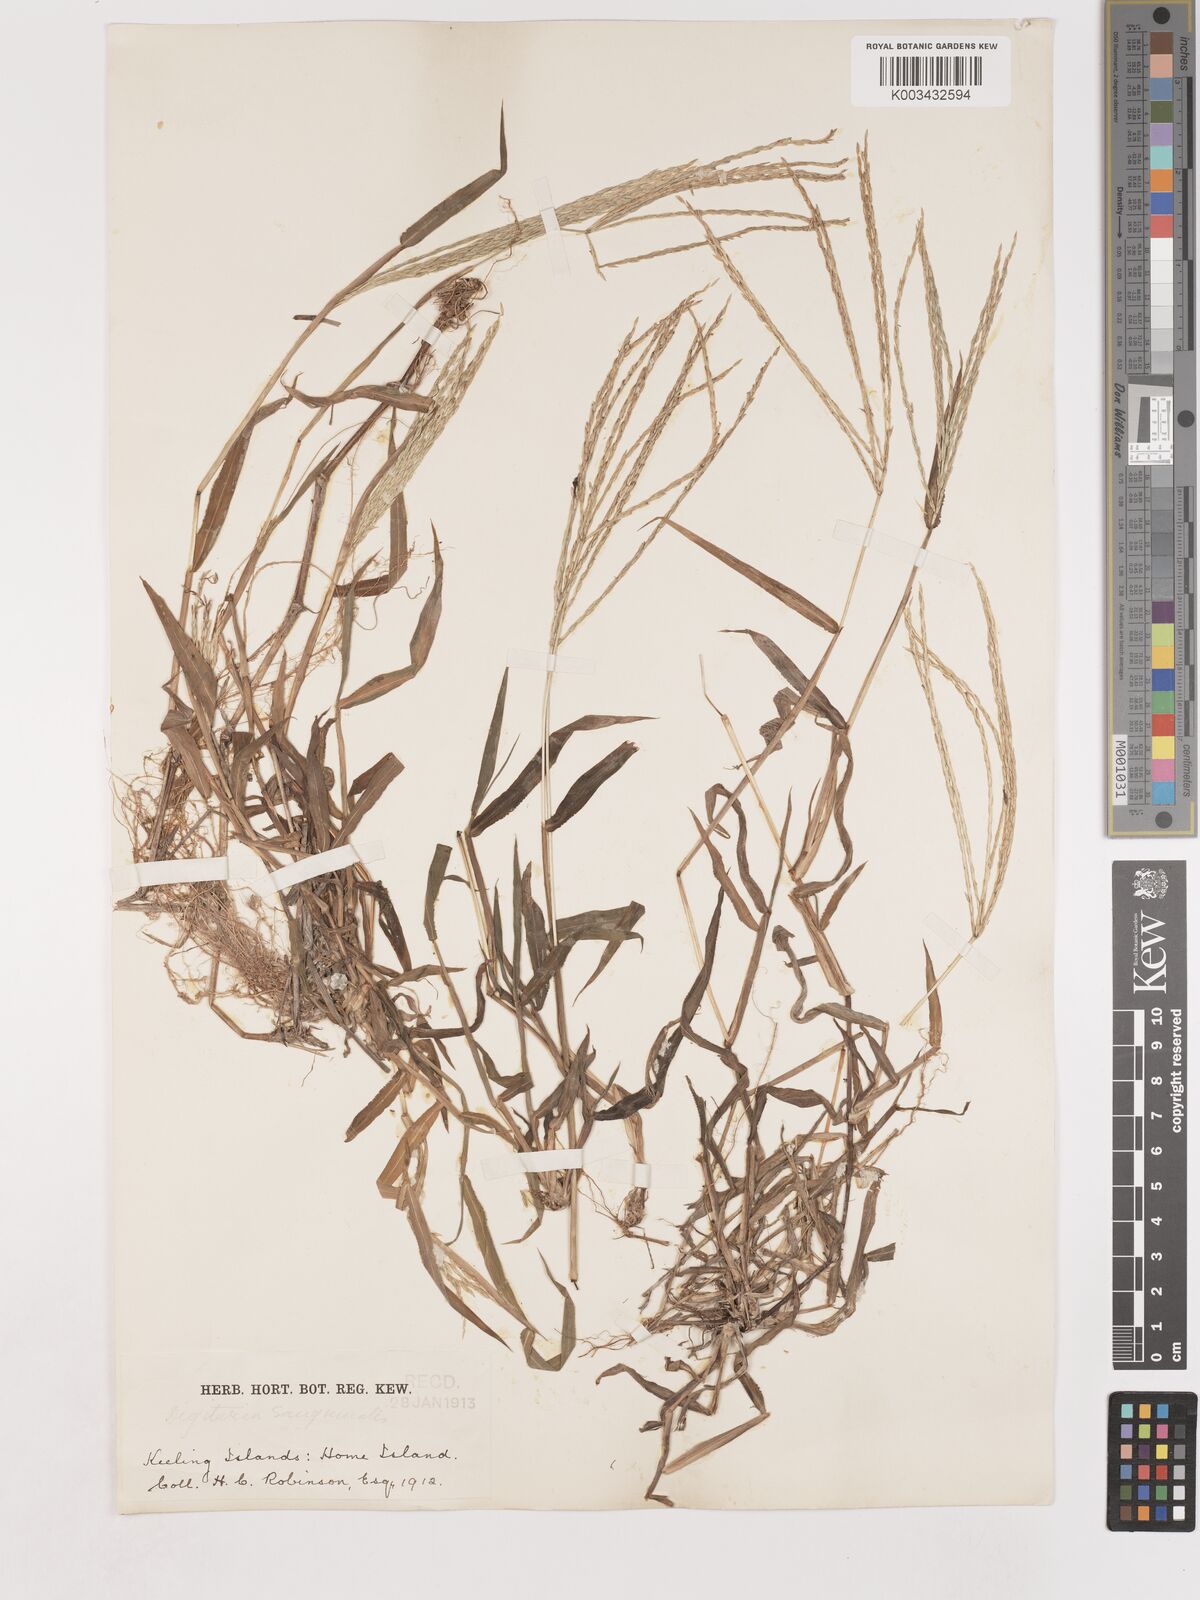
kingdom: Plantae
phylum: Tracheophyta
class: Liliopsida
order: Poales
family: Poaceae
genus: Digitaria
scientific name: Digitaria setigera
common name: East indian crabgrass
